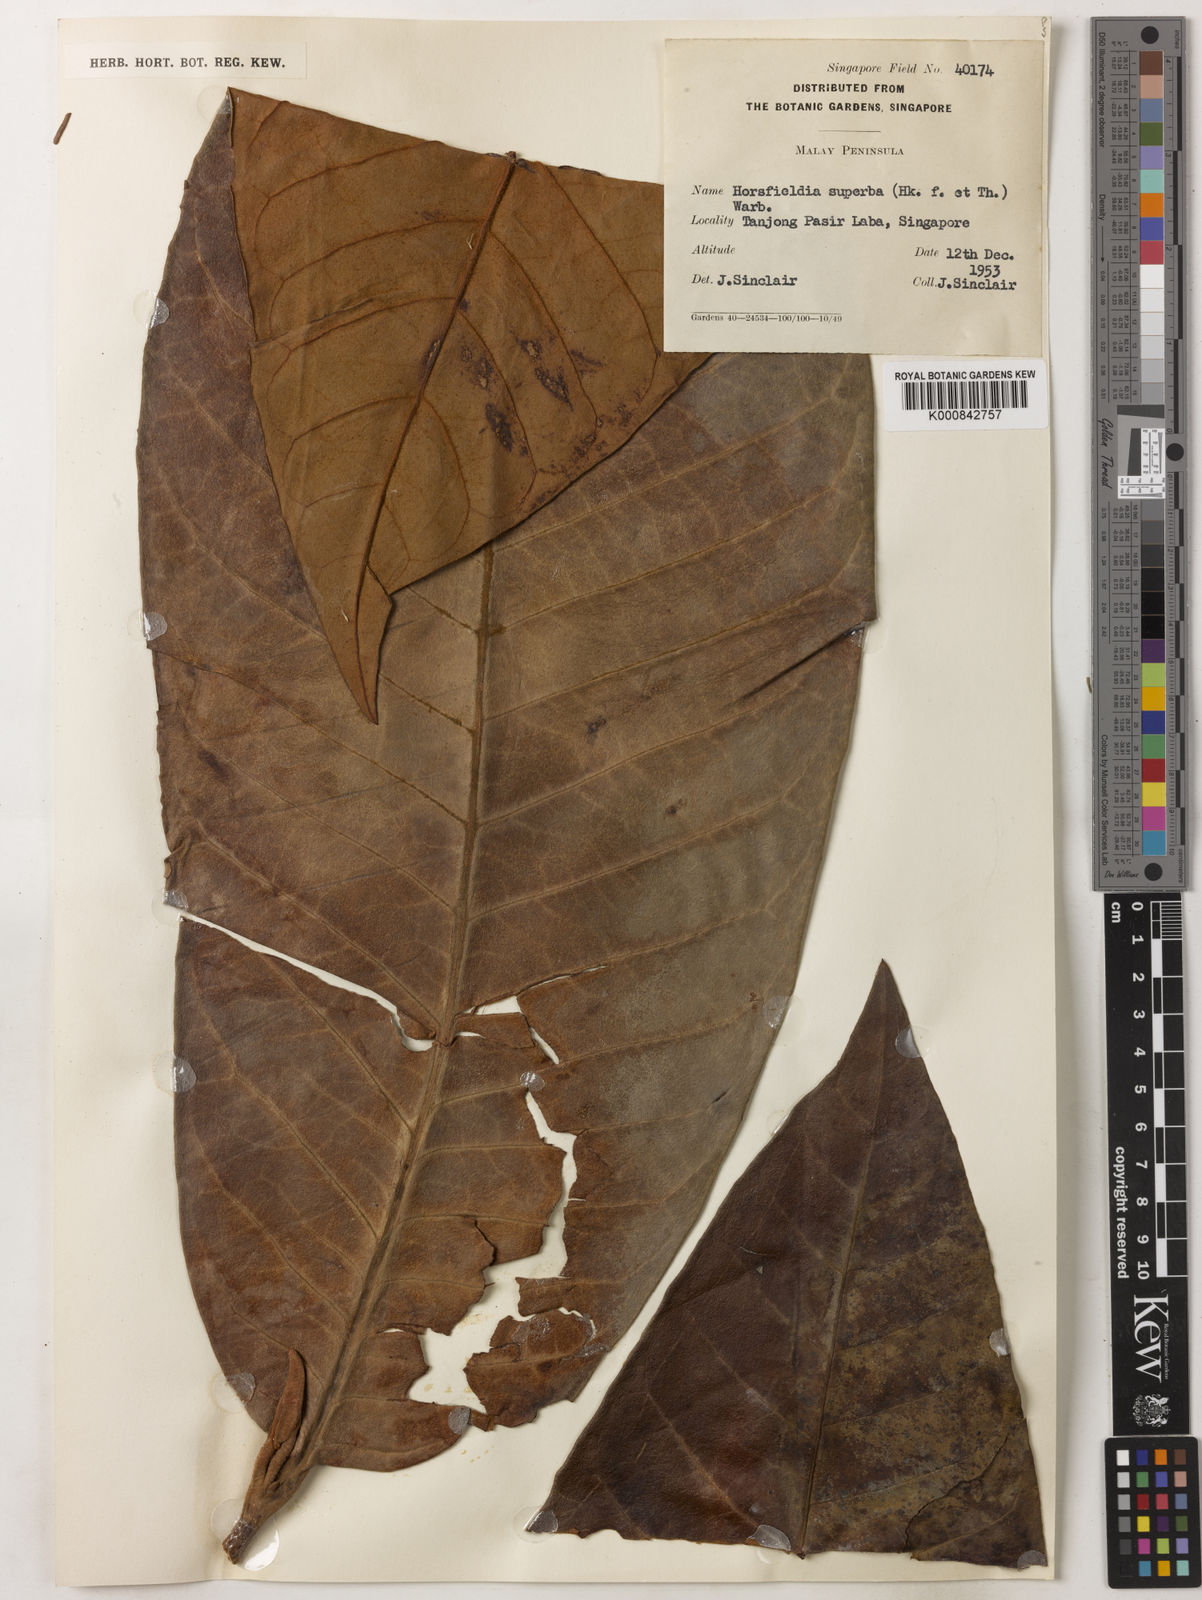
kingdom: Plantae
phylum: Tracheophyta
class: Magnoliopsida
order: Magnoliales
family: Myristicaceae
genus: Horsfieldia
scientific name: Horsfieldia superba
